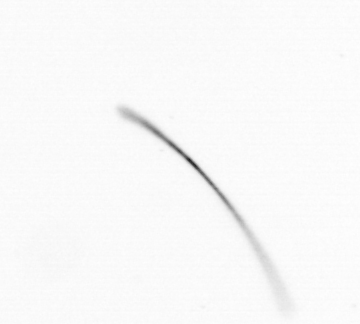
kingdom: Chromista
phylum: Ochrophyta
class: Bacillariophyceae
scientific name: Bacillariophyceae
